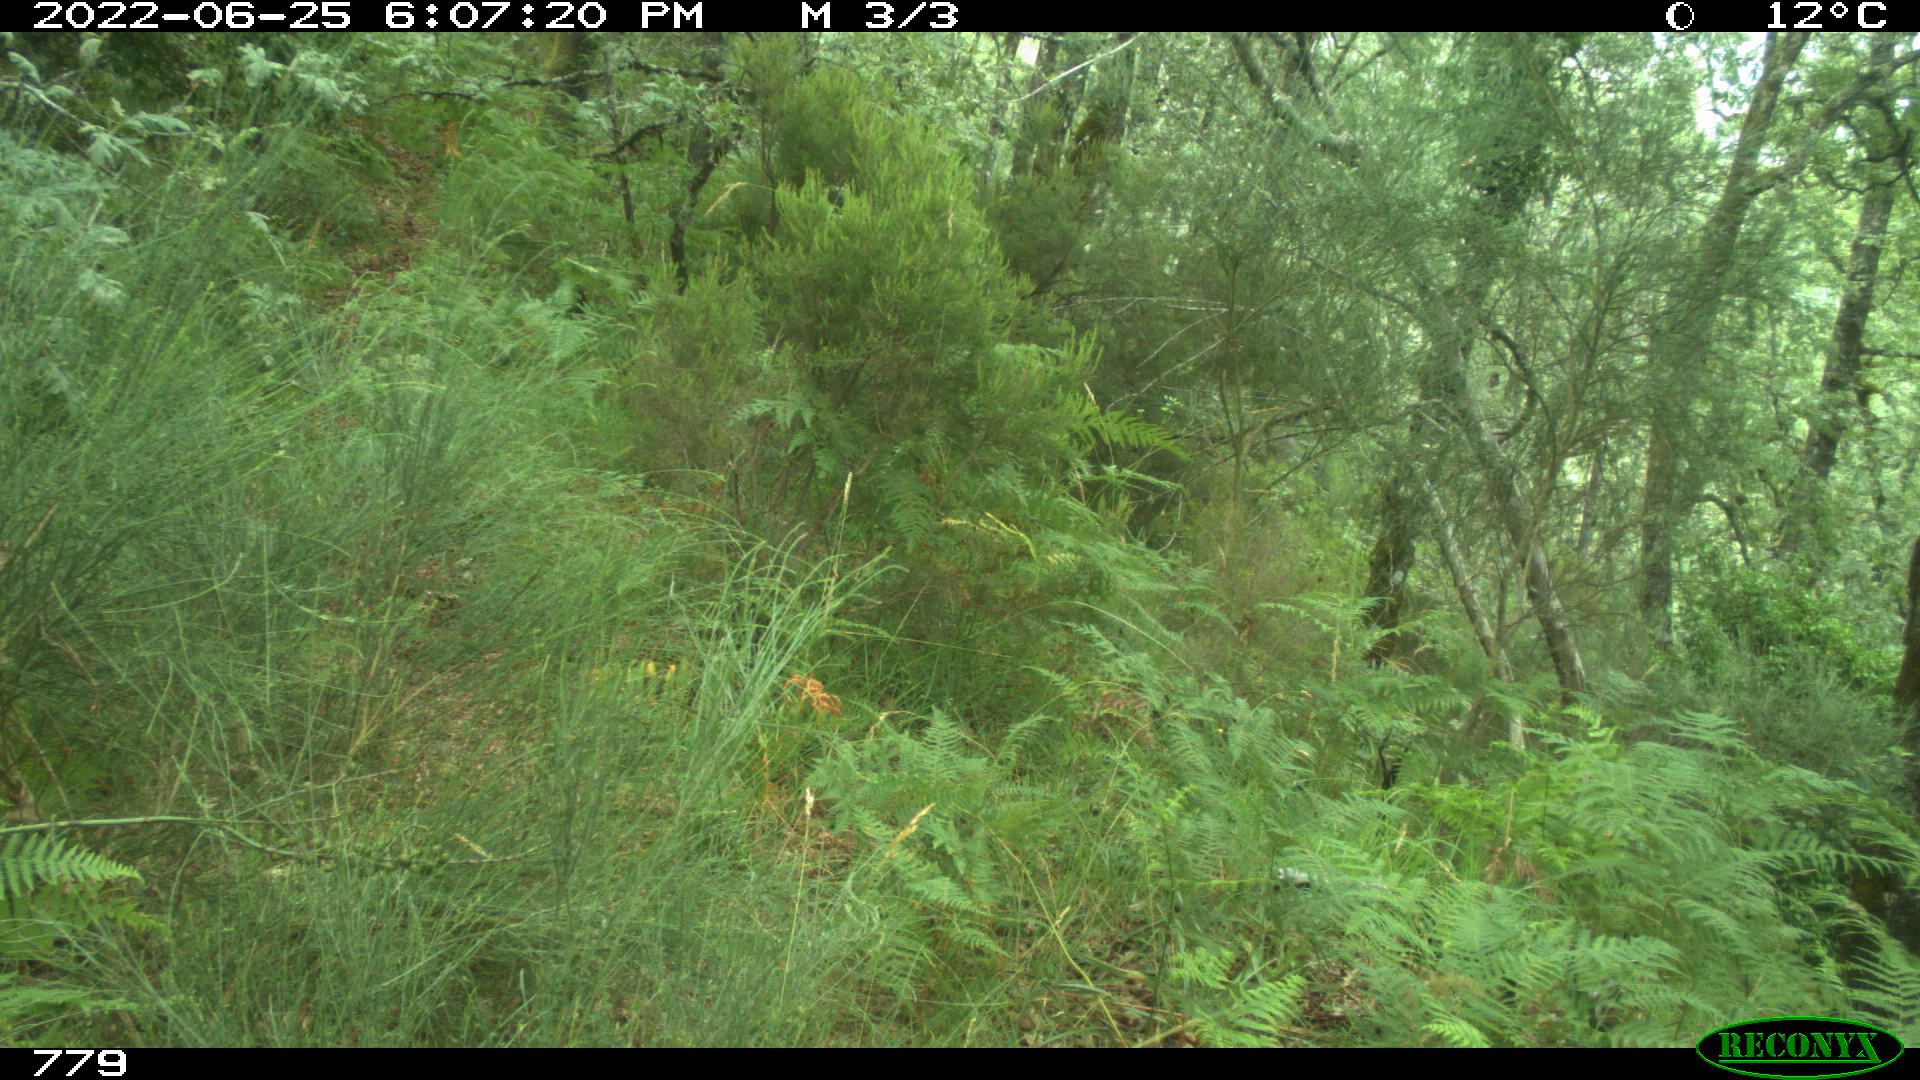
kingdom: Animalia
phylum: Chordata
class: Mammalia
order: Perissodactyla
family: Equidae
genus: Equus
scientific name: Equus caballus
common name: Horse
